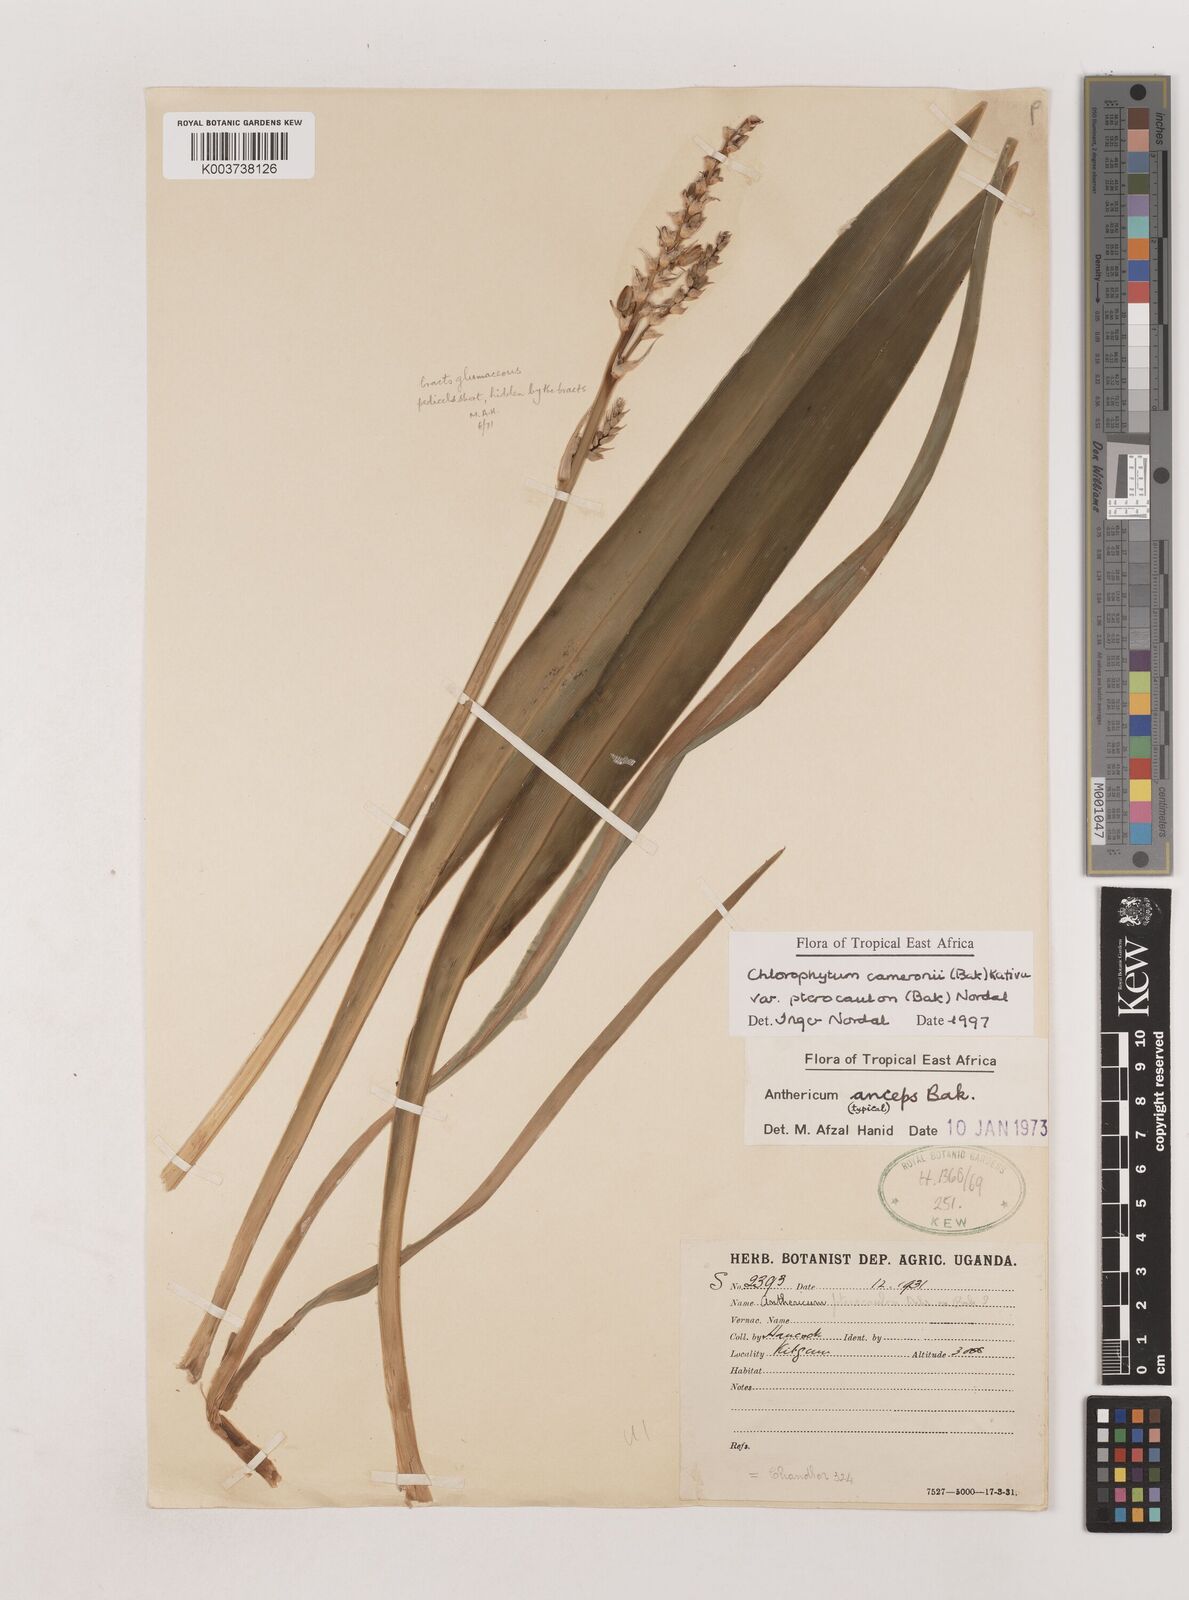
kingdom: Plantae
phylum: Tracheophyta
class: Liliopsida
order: Asparagales
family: Asparagaceae
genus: Chlorophytum
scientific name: Chlorophytum cameronii
